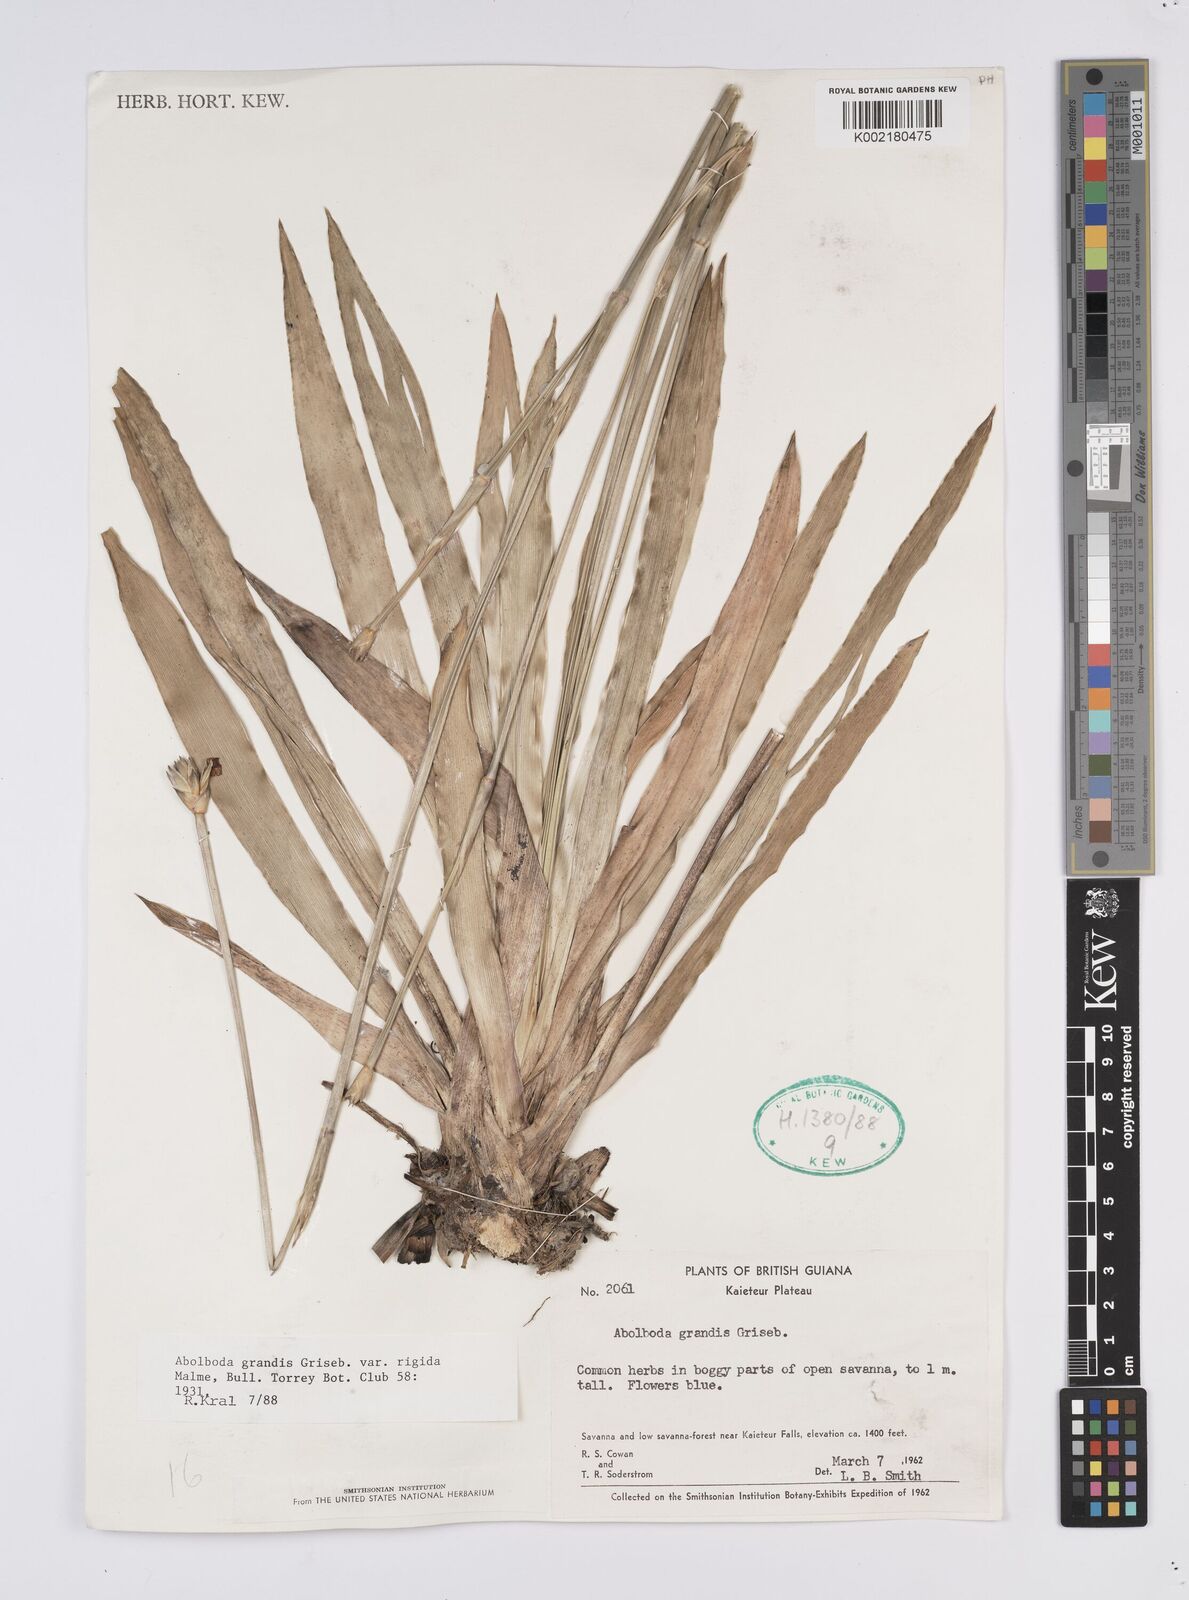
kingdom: Plantae
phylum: Tracheophyta
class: Liliopsida
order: Poales
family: Xyridaceae
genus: Abolboda
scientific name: Abolboda grandis
